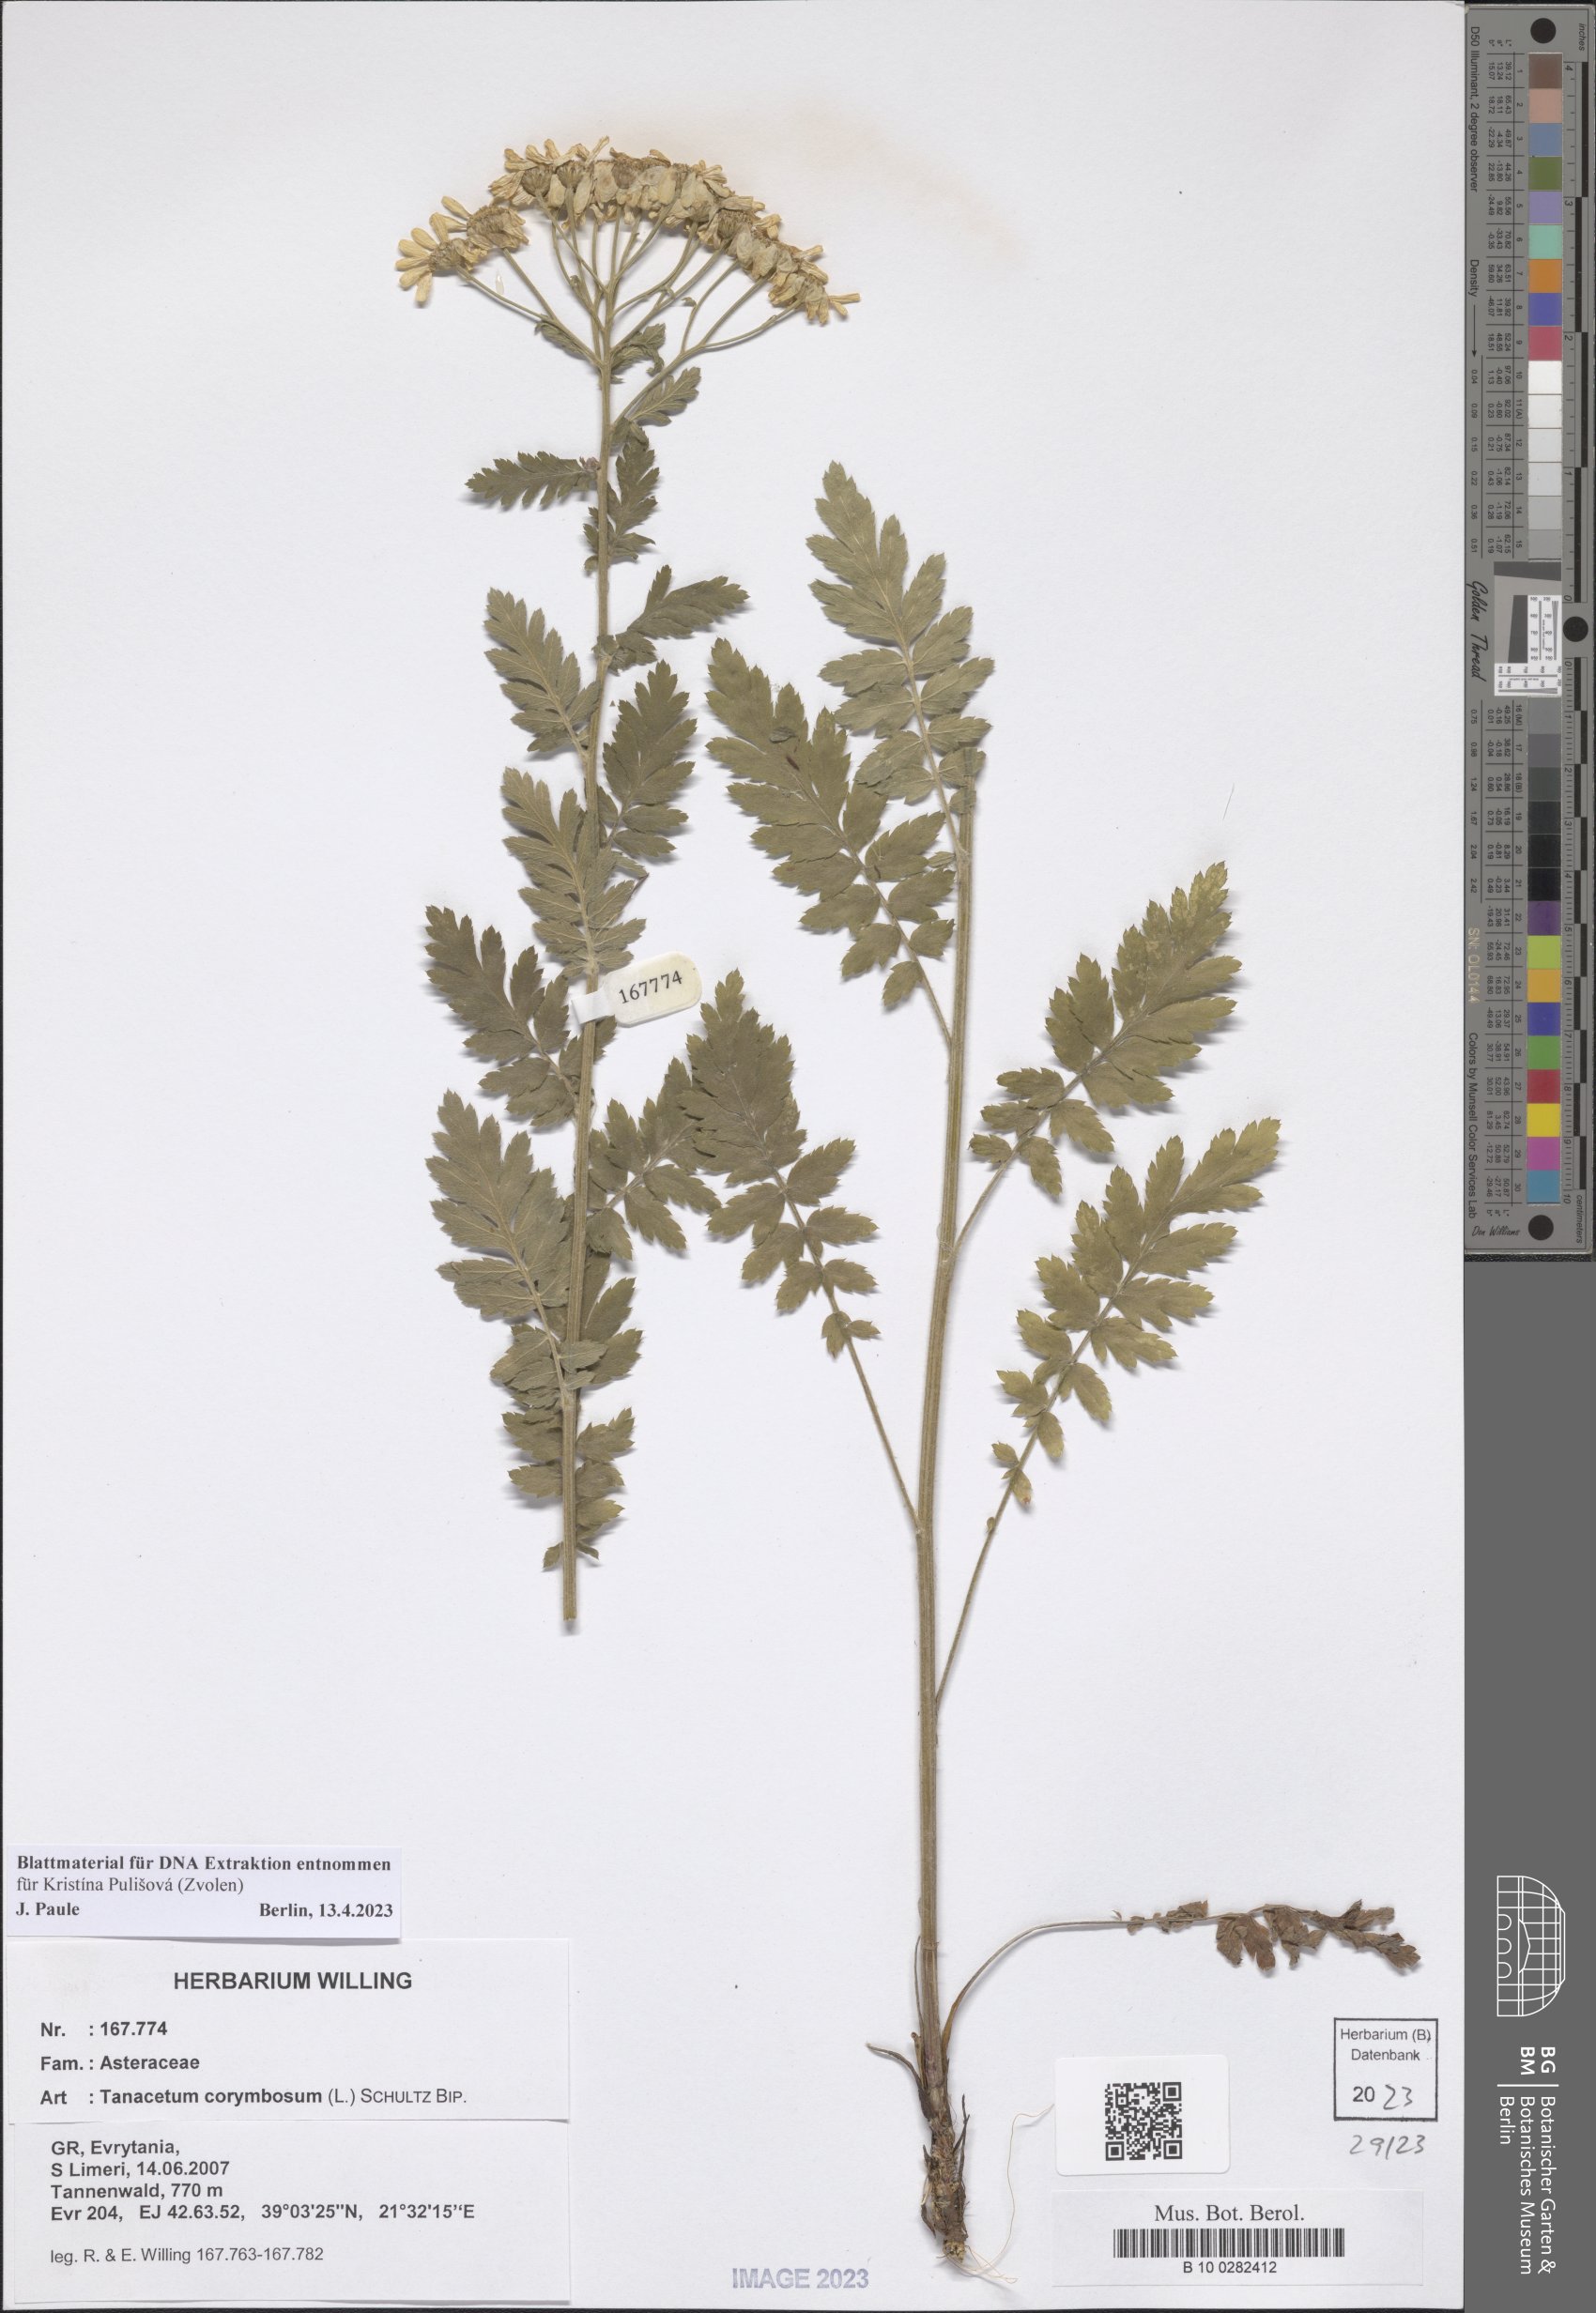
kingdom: Plantae
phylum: Tracheophyta
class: Magnoliopsida
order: Asterales
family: Asteraceae
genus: Tanacetum
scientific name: Tanacetum corymbosum
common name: Scentless feverfew
